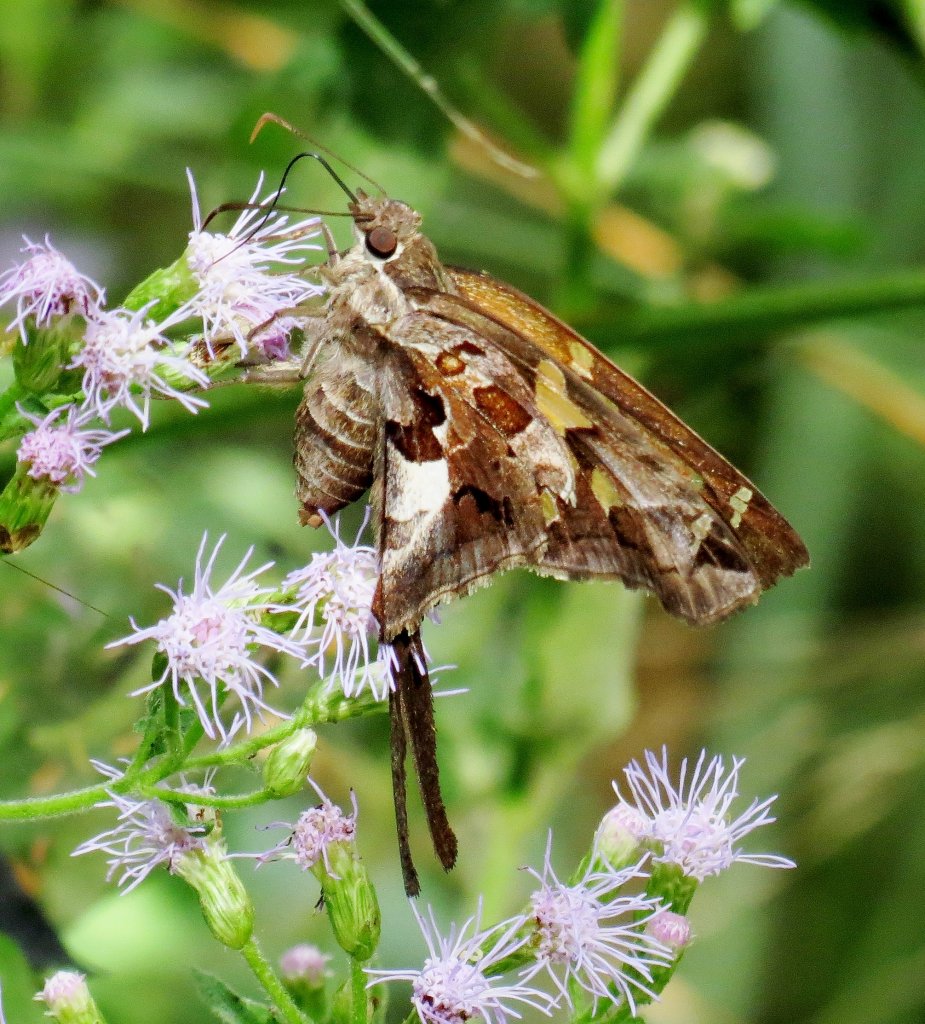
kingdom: Animalia
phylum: Arthropoda
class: Insecta
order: Lepidoptera
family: Hesperiidae
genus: Chioides
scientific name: Chioides zilpa
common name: Zilpa Longtail
